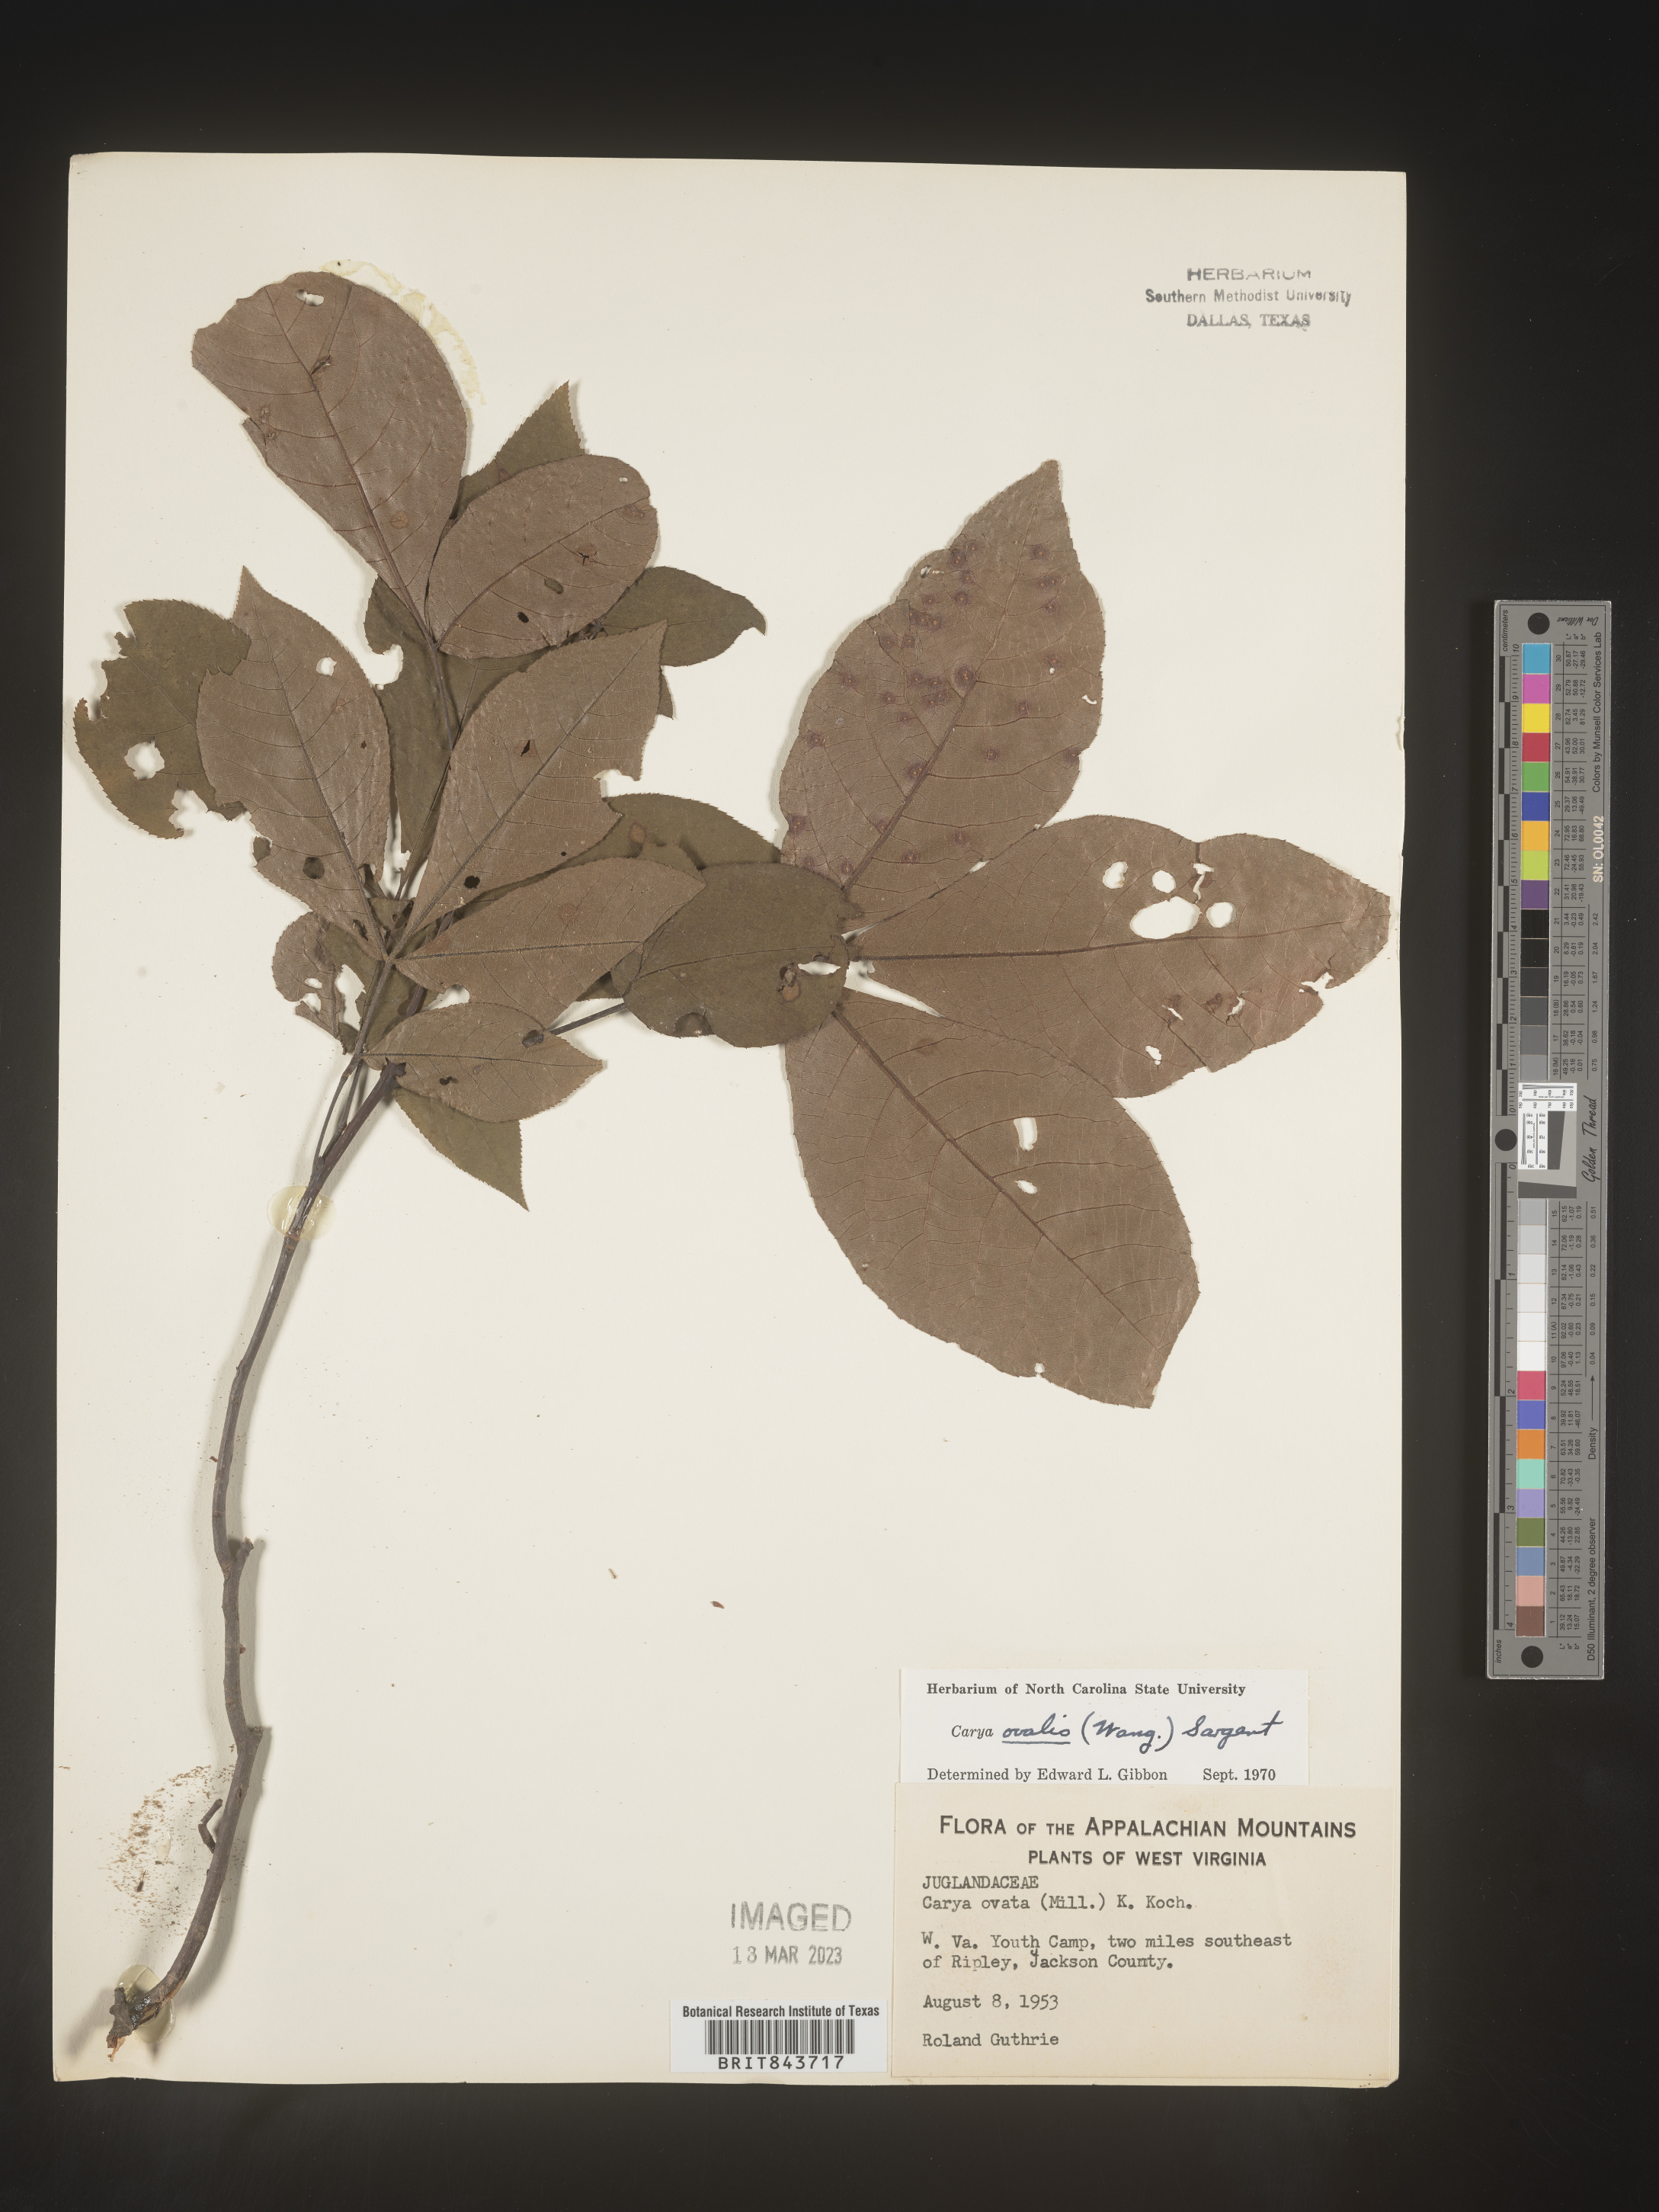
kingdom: Plantae
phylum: Tracheophyta
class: Magnoliopsida
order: Fagales
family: Juglandaceae
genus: Carya
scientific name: Carya ovalis
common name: False shagbark
